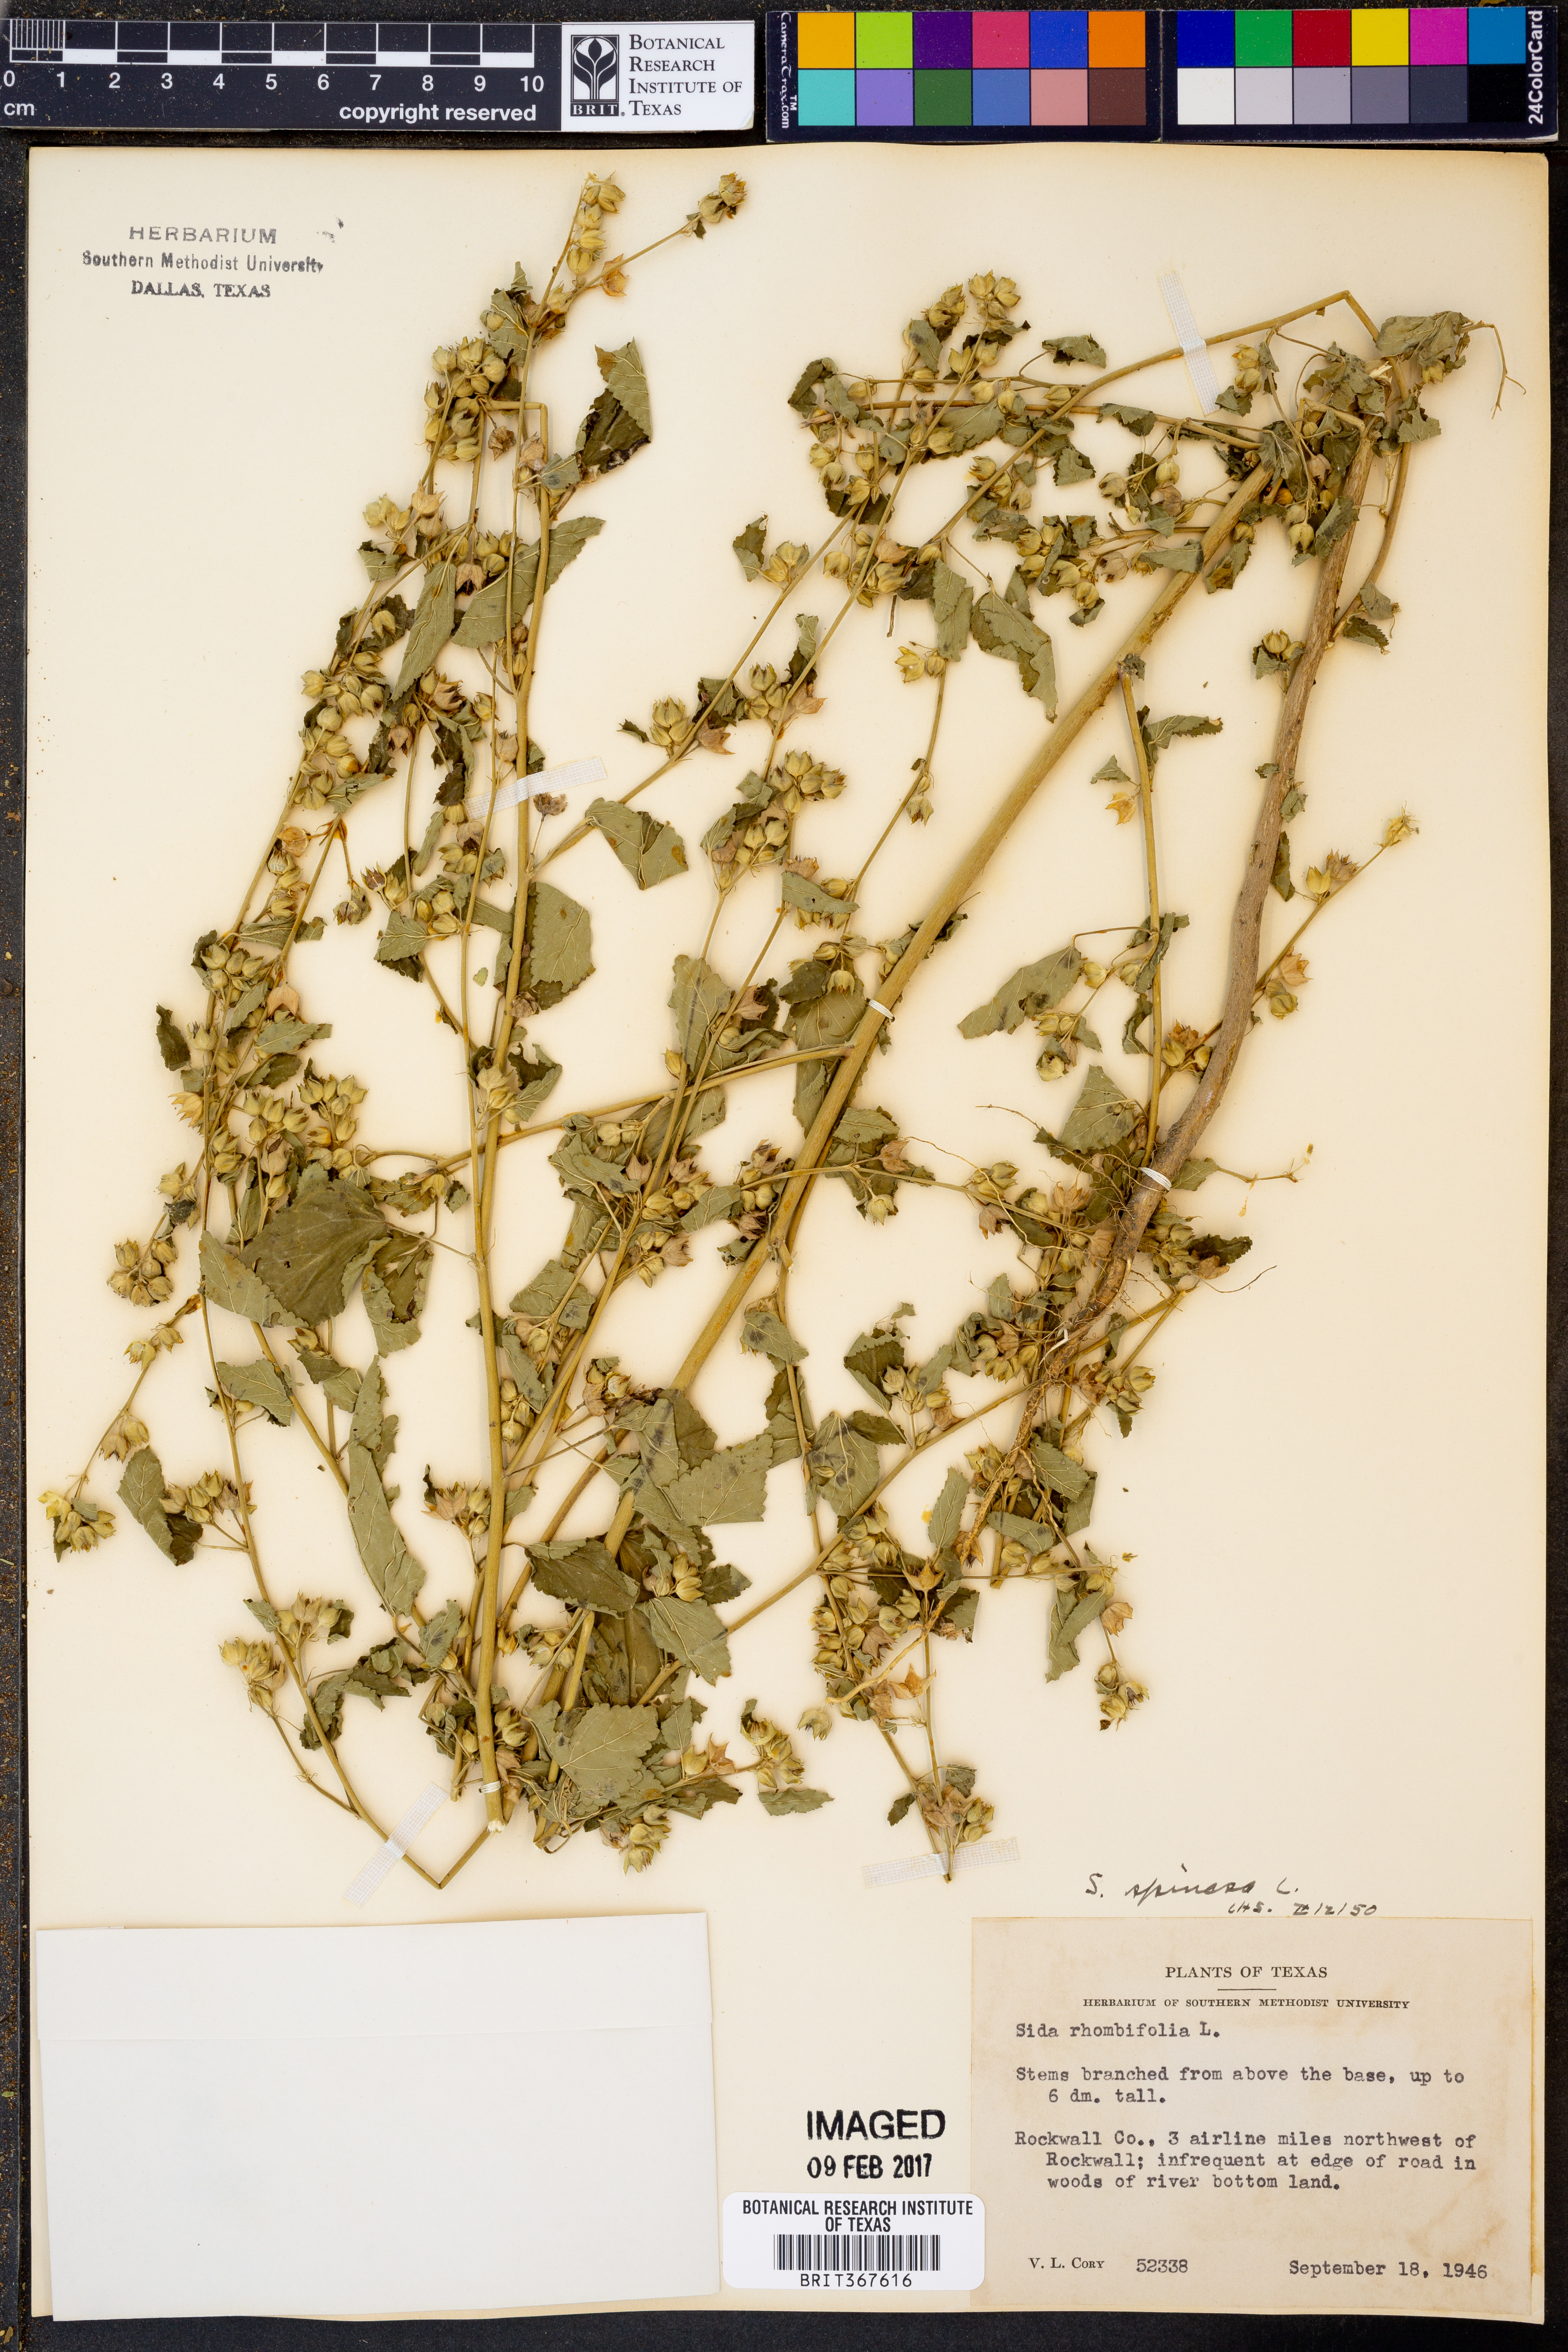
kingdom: Plantae
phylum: Tracheophyta
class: Magnoliopsida
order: Malvales
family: Malvaceae
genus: Sida
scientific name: Sida spinosa
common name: Prickly fanpetals
